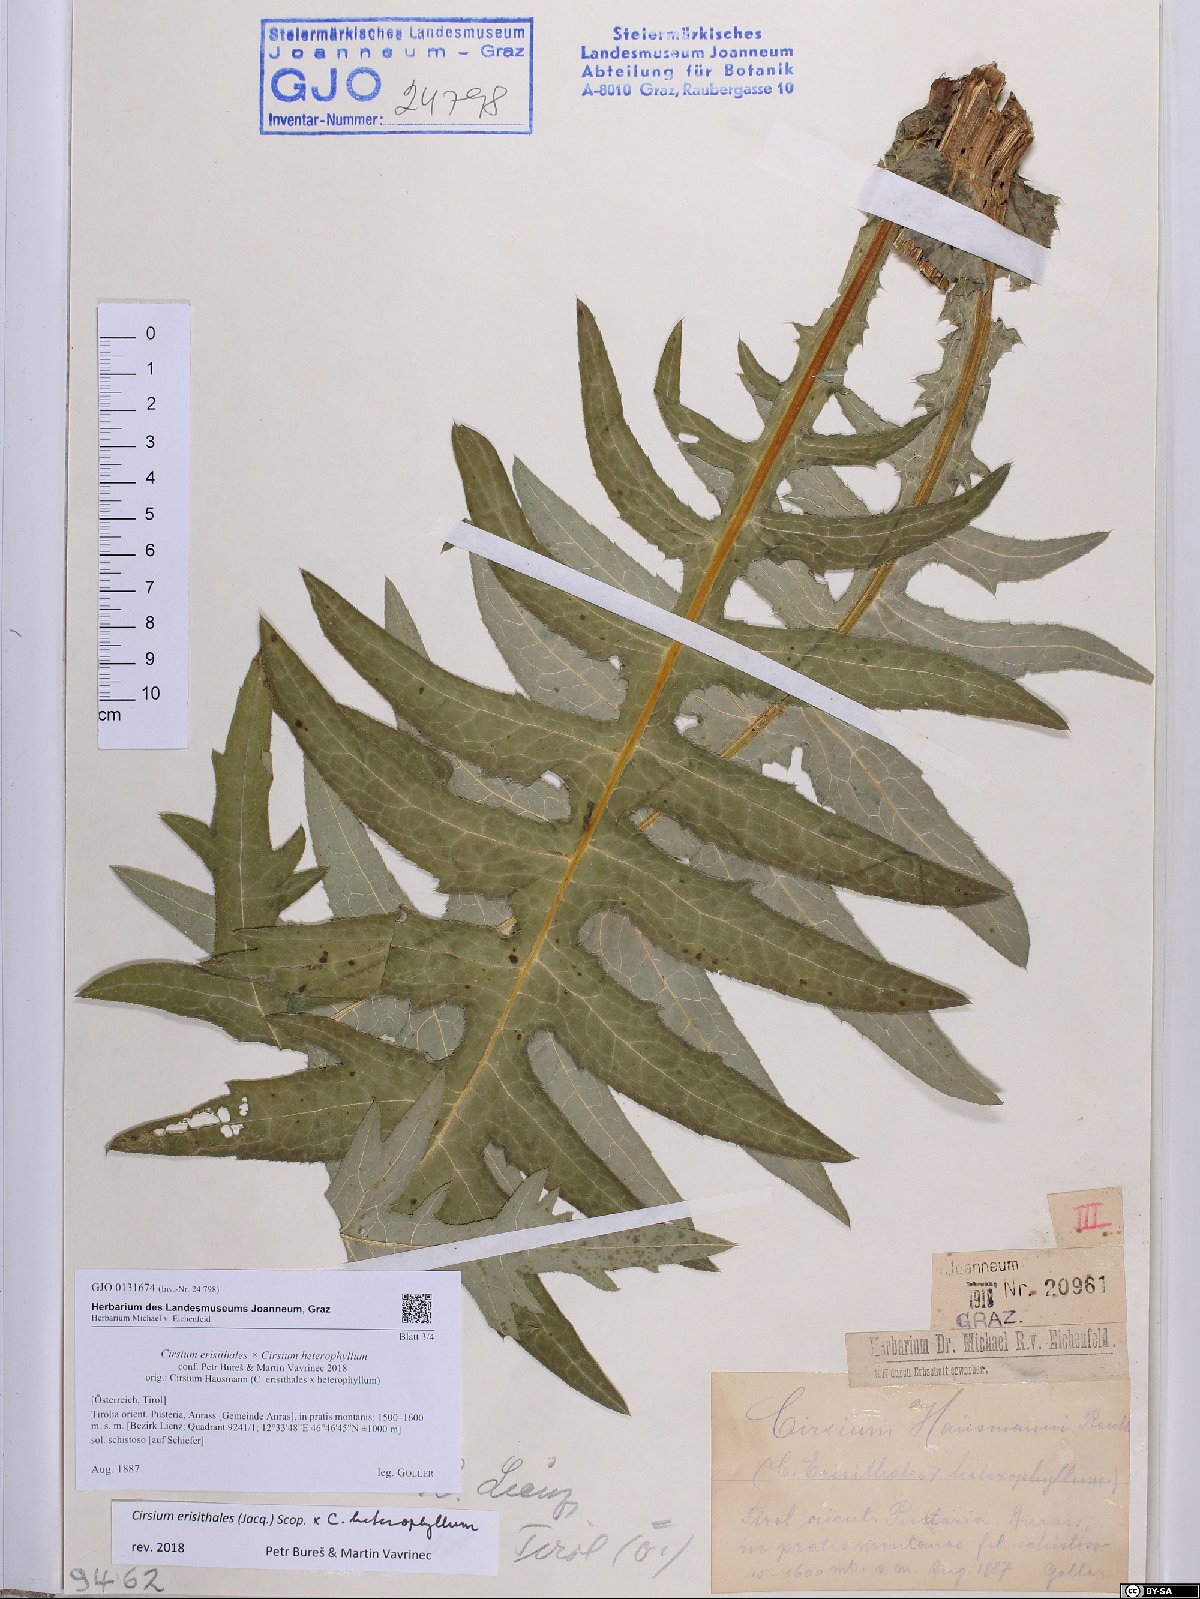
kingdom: Plantae
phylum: Tracheophyta
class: Magnoliopsida
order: Asterales
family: Asteraceae
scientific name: Asteraceae
